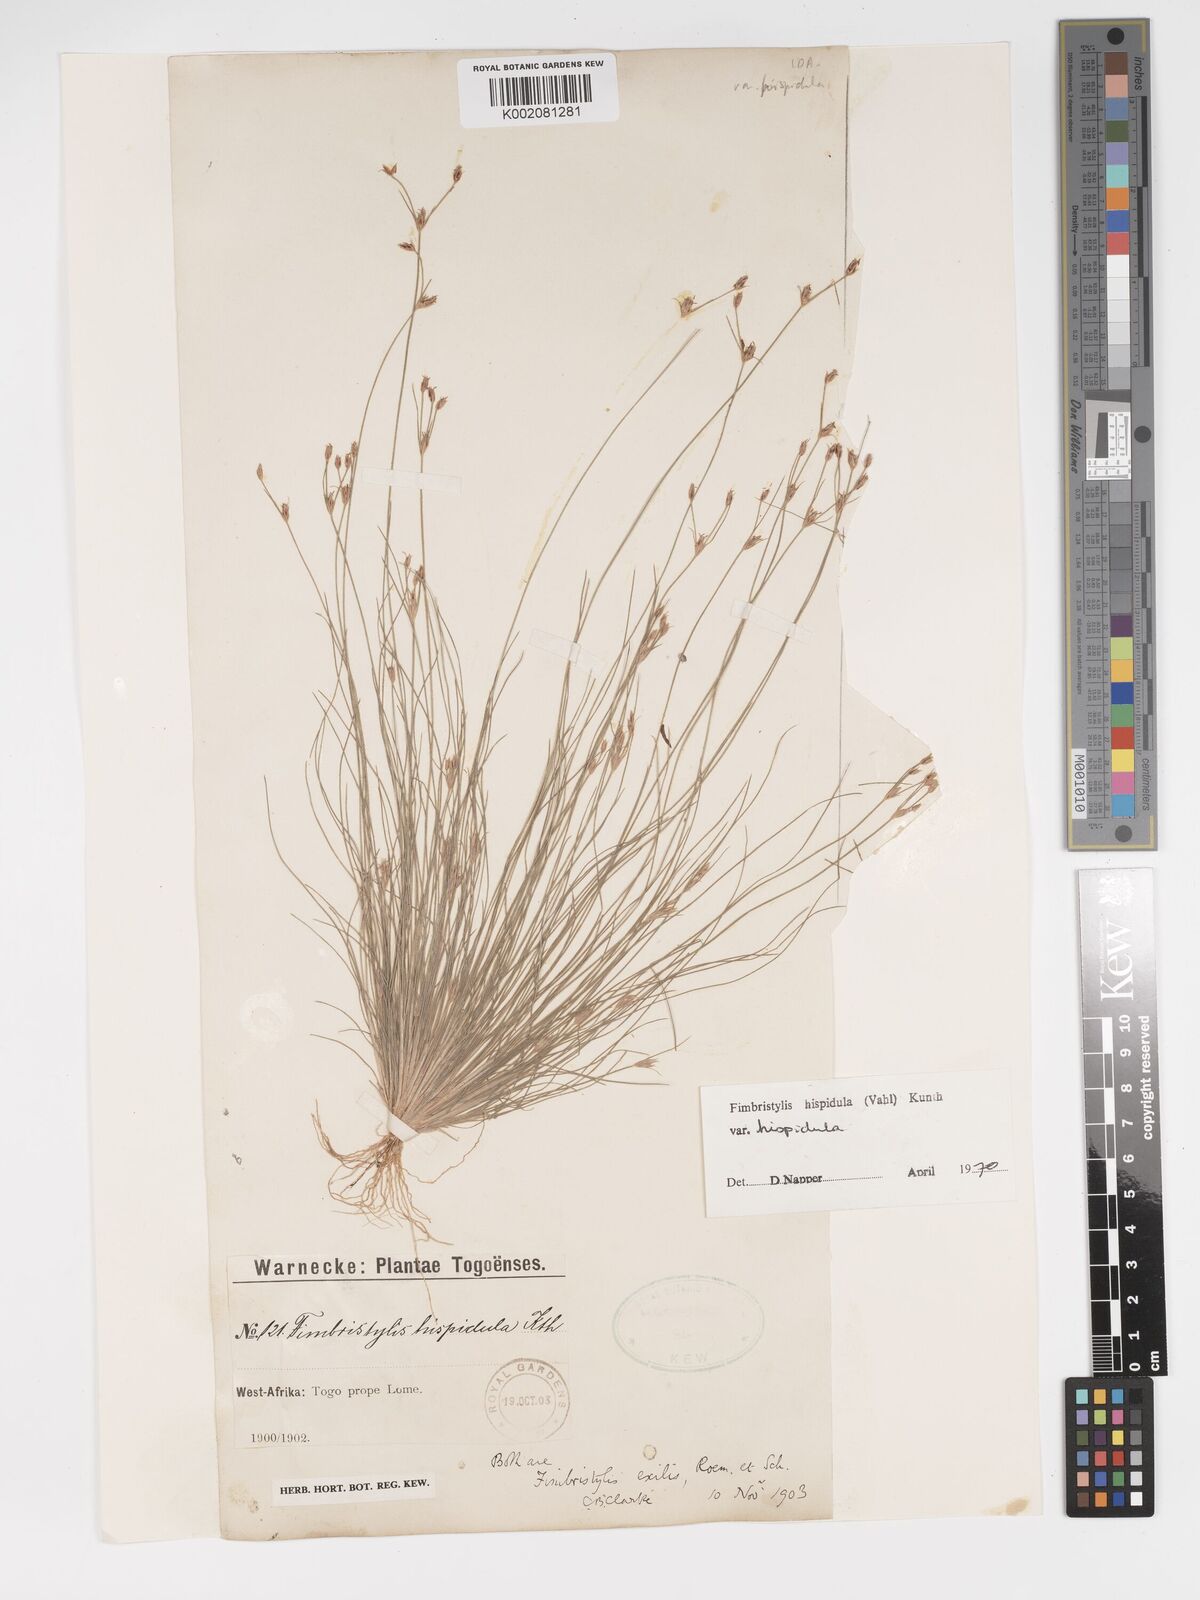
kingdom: Plantae
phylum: Tracheophyta
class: Liliopsida
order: Poales
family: Cyperaceae
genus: Bulbostylis
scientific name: Bulbostylis hispidula
